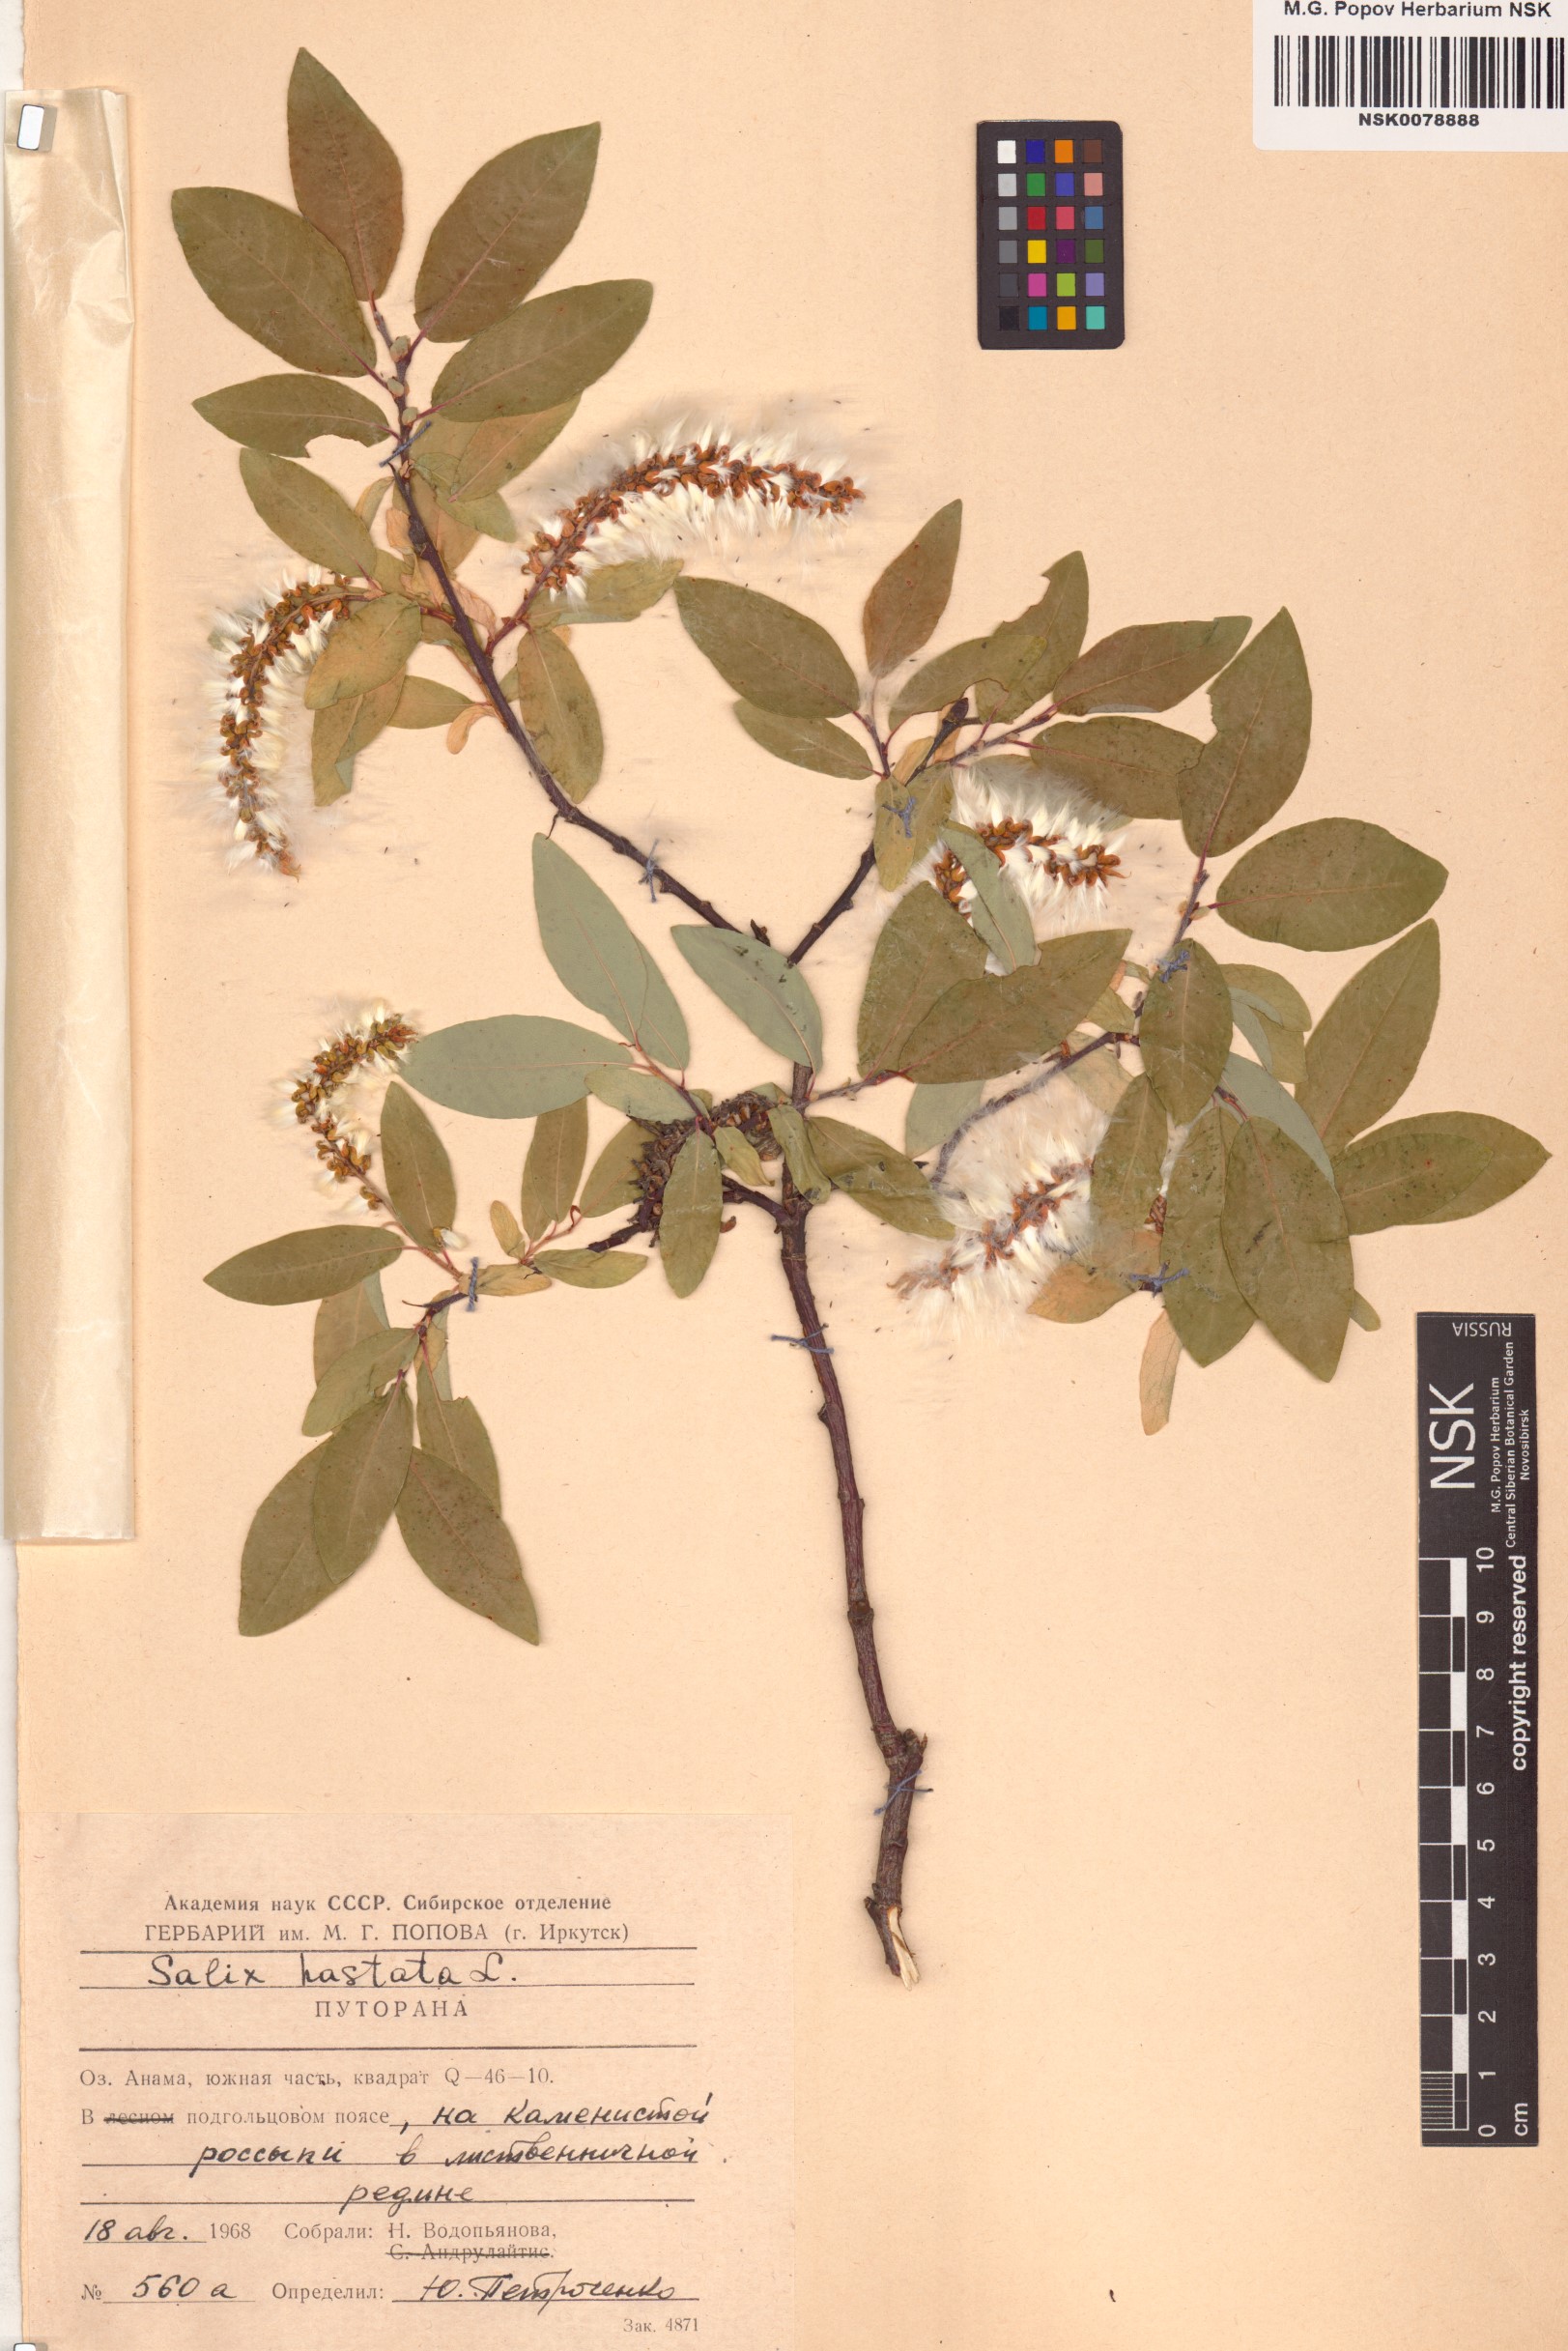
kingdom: Plantae
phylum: Tracheophyta
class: Magnoliopsida
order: Malpighiales
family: Salicaceae
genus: Salix
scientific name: Salix hastata
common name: Halberd willow
